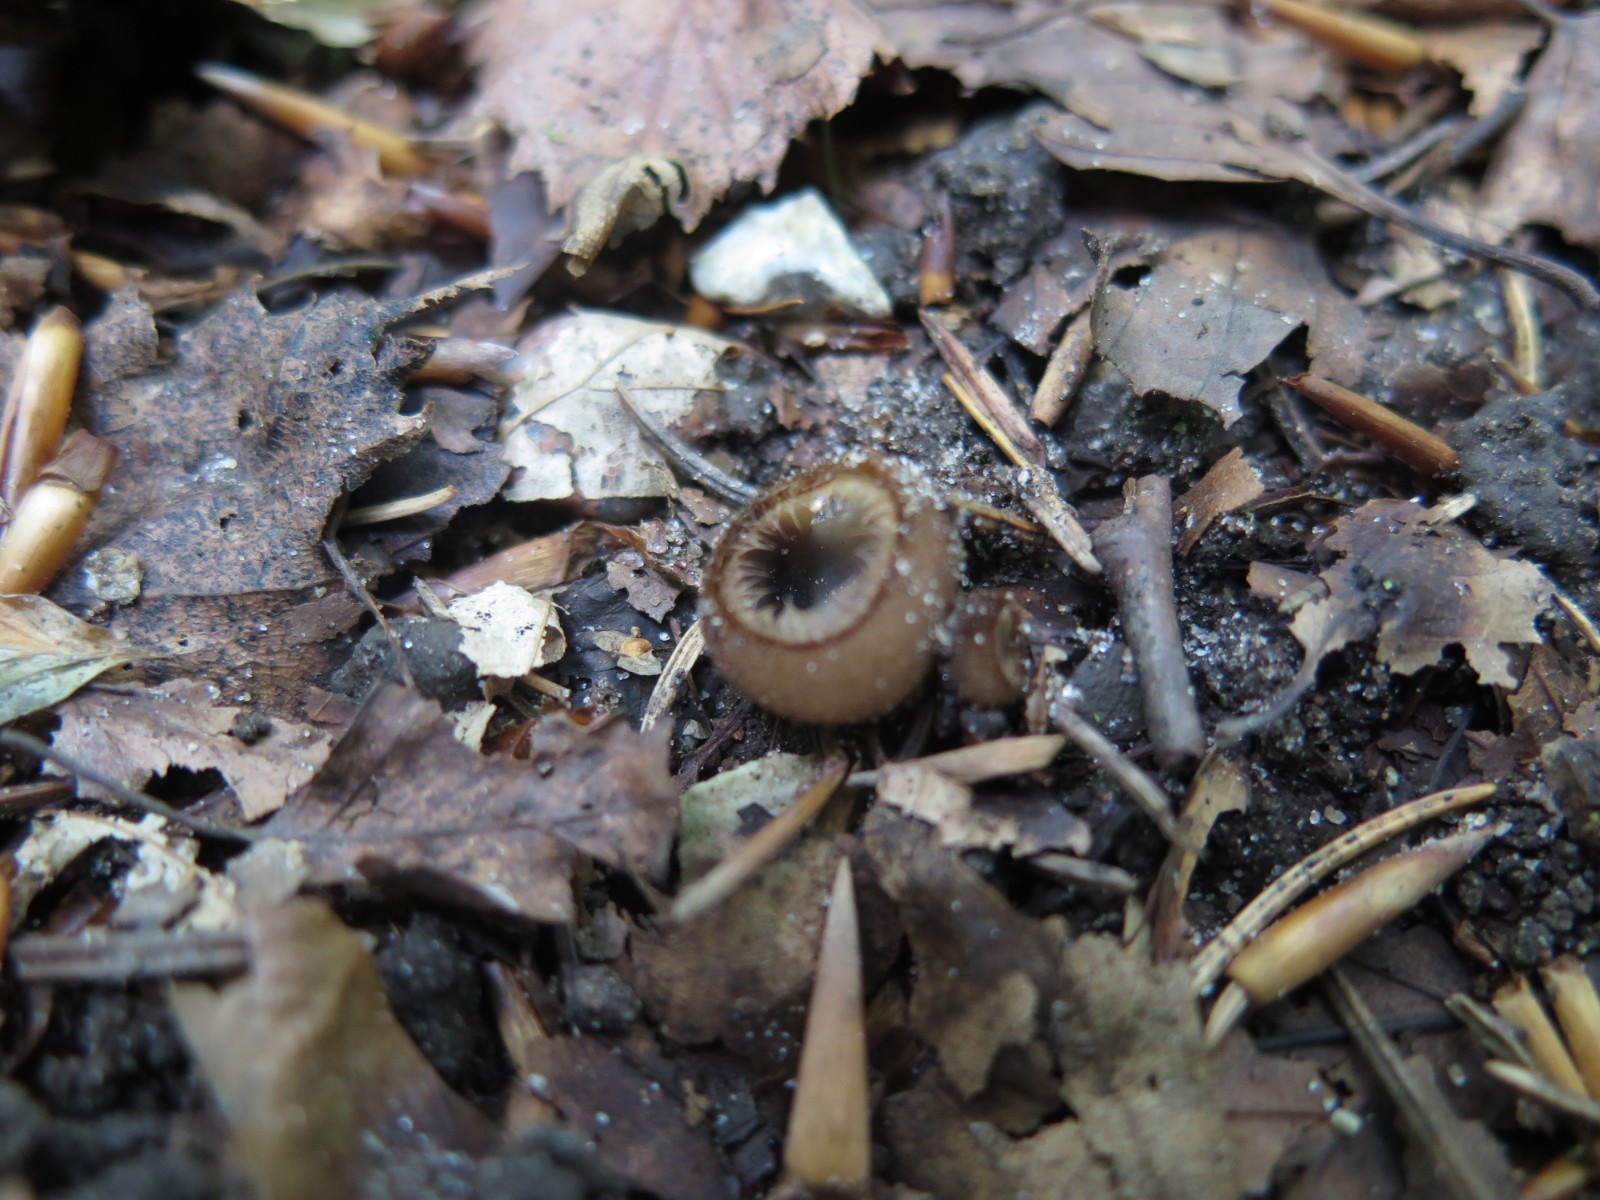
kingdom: Fungi
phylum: Ascomycota
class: Pezizomycetes
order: Pezizales
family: Pyronemataceae
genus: Humaria
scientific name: Humaria hemisphaerica
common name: halvkugleformet børstebæger
